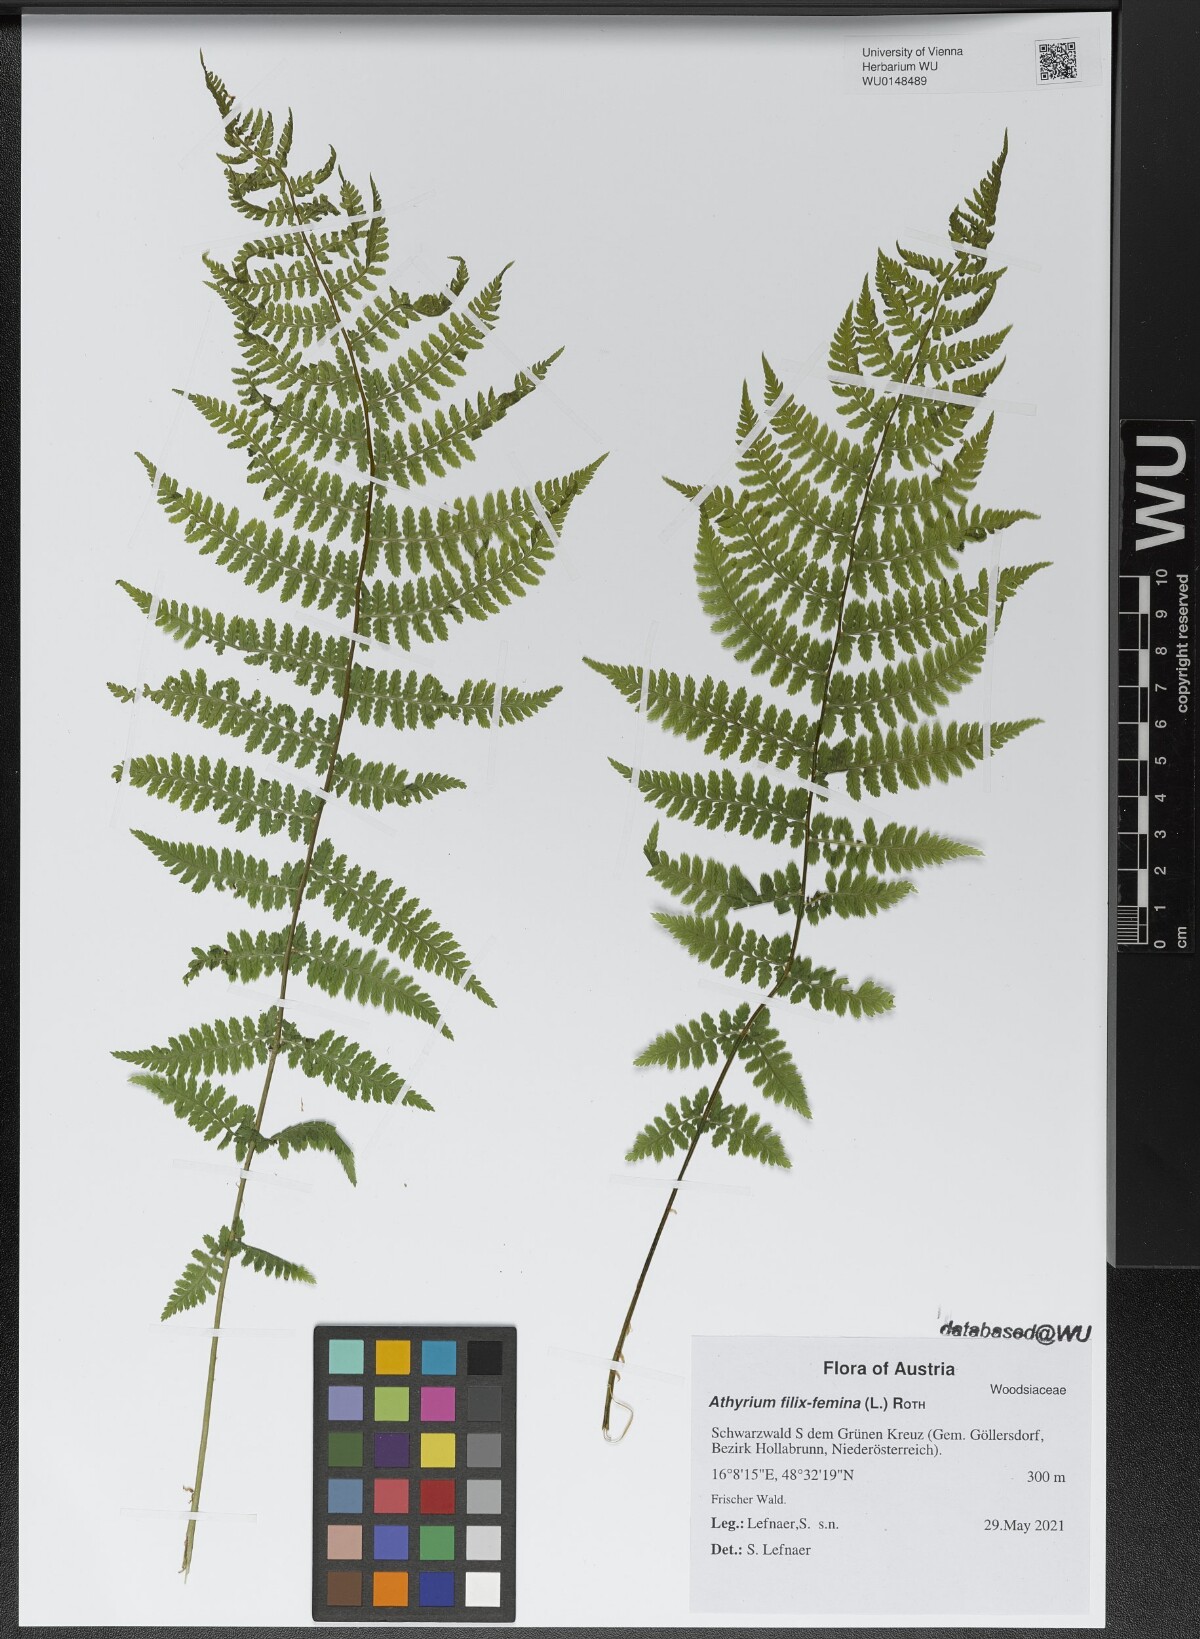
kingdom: Plantae
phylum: Tracheophyta
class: Polypodiopsida
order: Polypodiales
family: Athyriaceae
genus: Athyrium
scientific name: Athyrium filix-femina
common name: Lady fern
